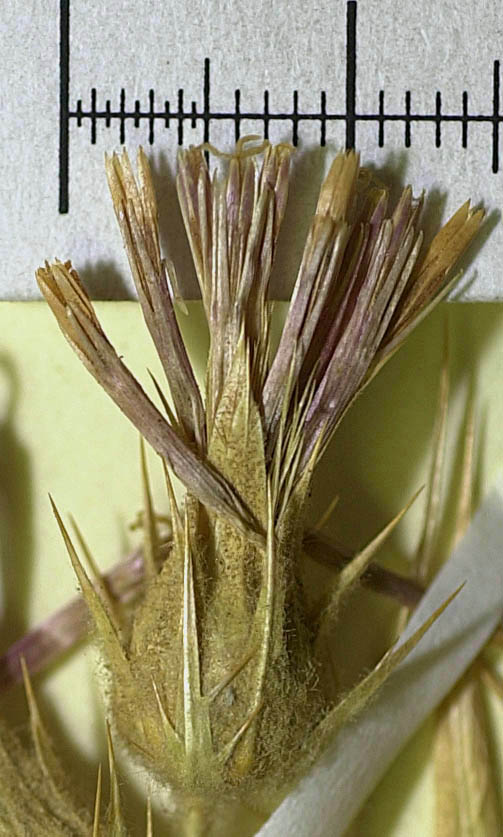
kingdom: Plantae
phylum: Tracheophyta
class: Magnoliopsida
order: Asterales
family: Asteraceae
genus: Cousinia
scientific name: Cousinia andarabensis
